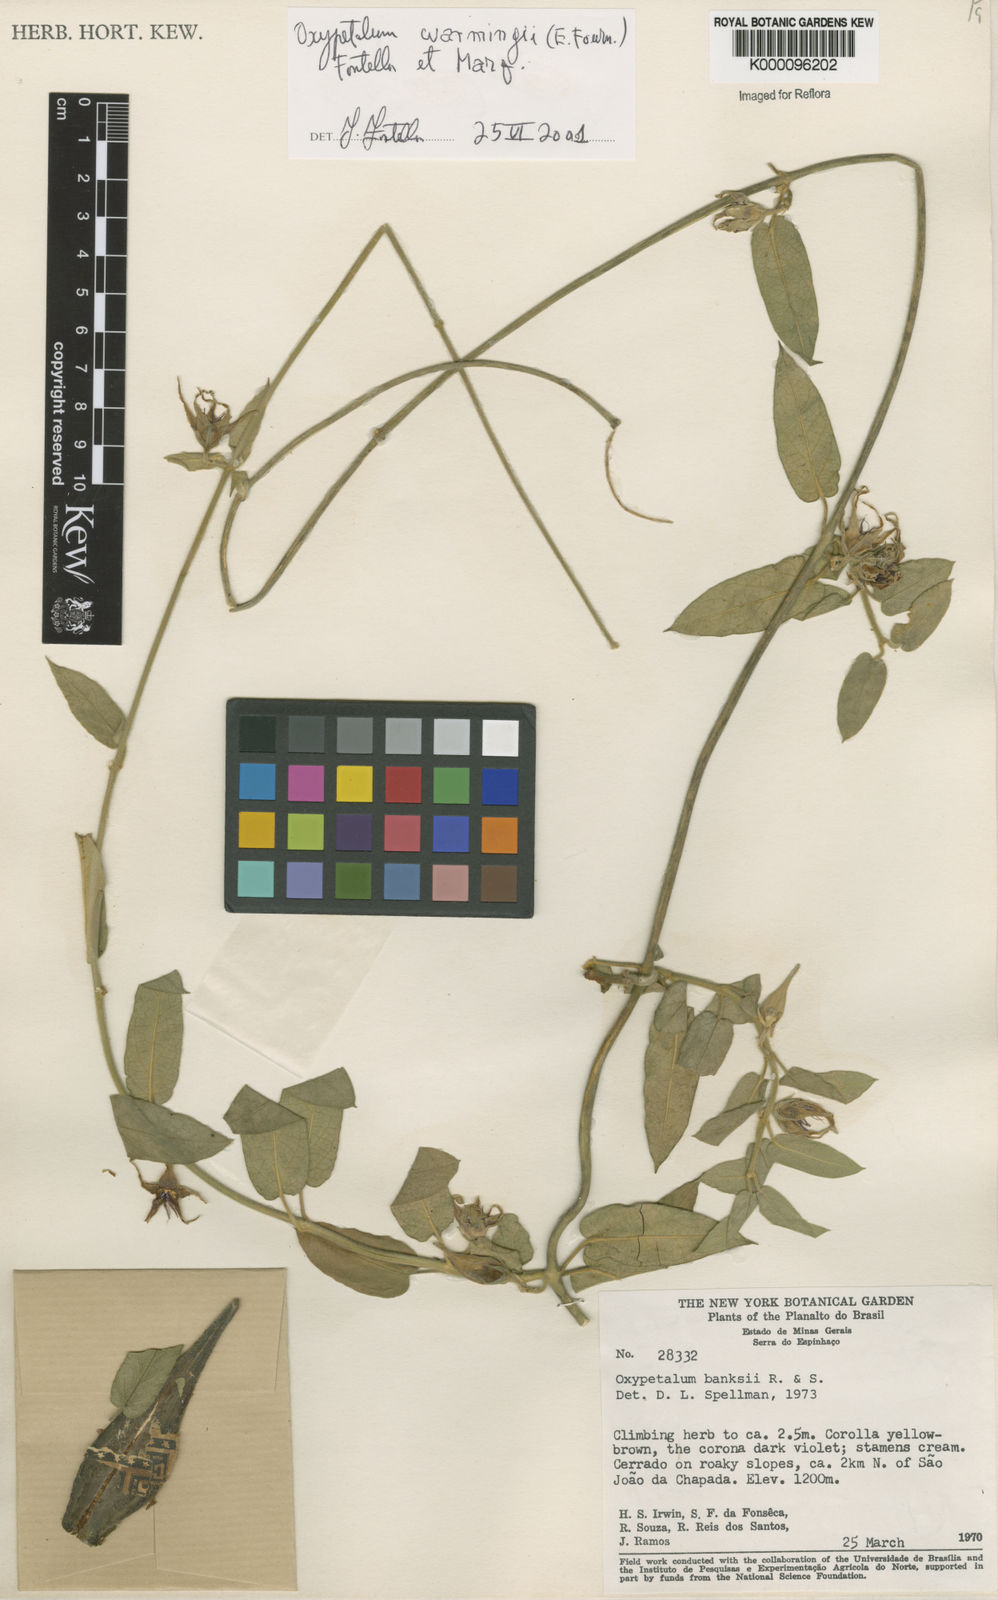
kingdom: Plantae
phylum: Tracheophyta
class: Magnoliopsida
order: Gentianales
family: Apocynaceae
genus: Oxypetalum
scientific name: Oxypetalum warmingii
